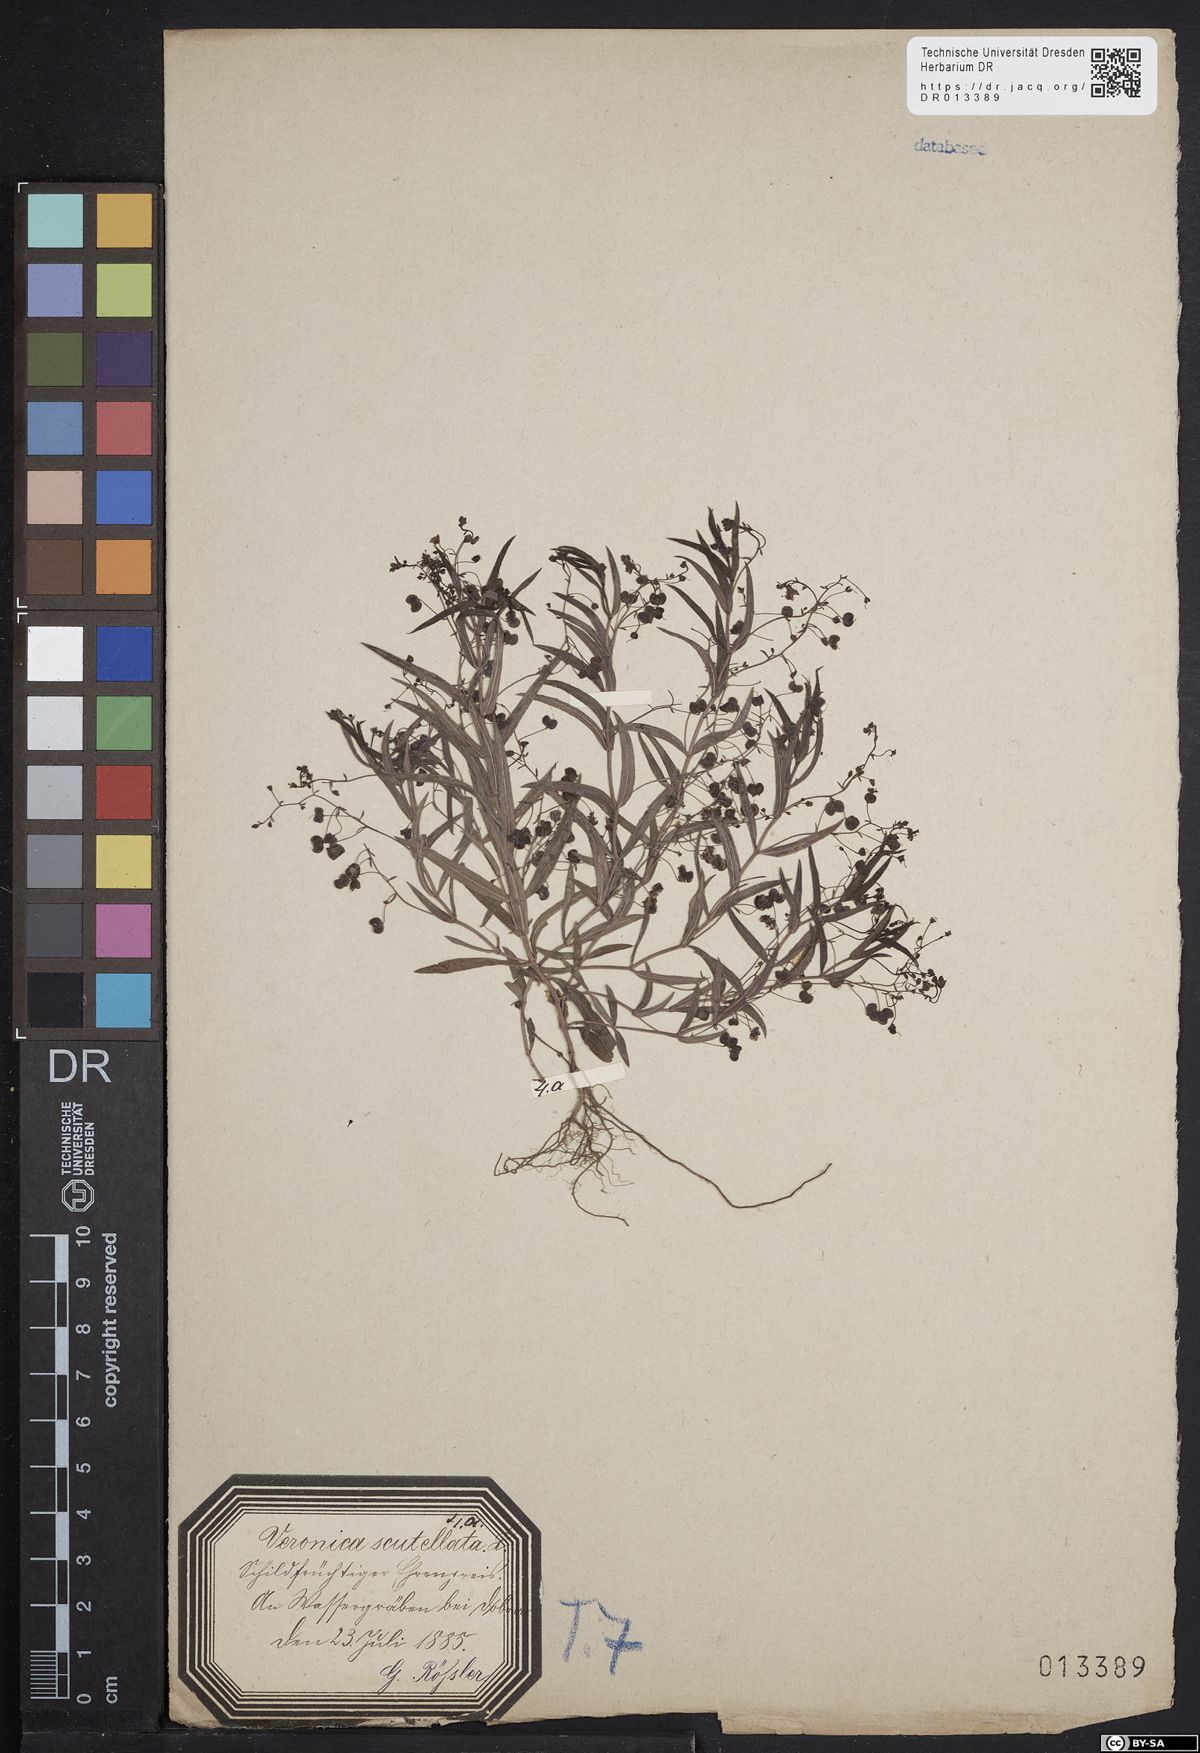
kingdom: Plantae
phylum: Tracheophyta
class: Magnoliopsida
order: Lamiales
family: Plantaginaceae
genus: Veronica
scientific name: Veronica scutellata
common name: Marsh speedwell
